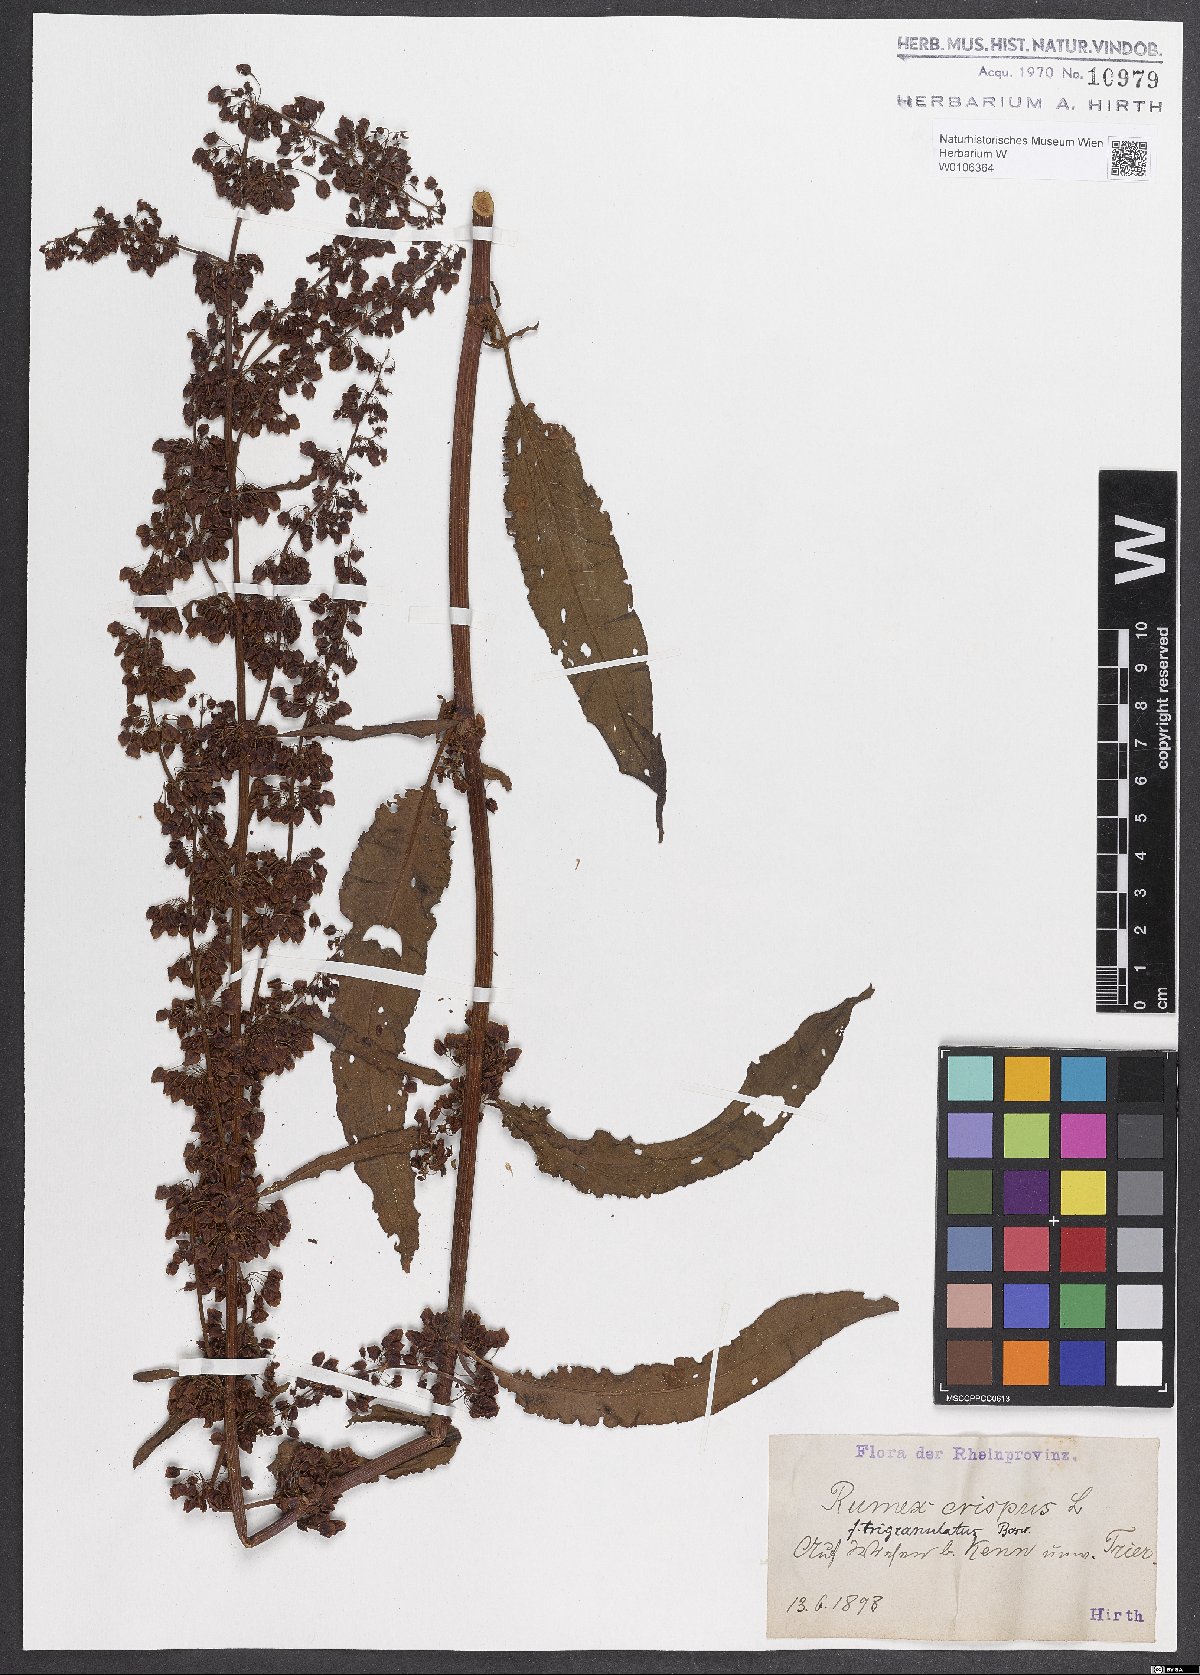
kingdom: Plantae
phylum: Tracheophyta
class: Magnoliopsida
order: Caryophyllales
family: Polygonaceae
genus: Rumex
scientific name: Rumex crispus
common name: Curled dock
